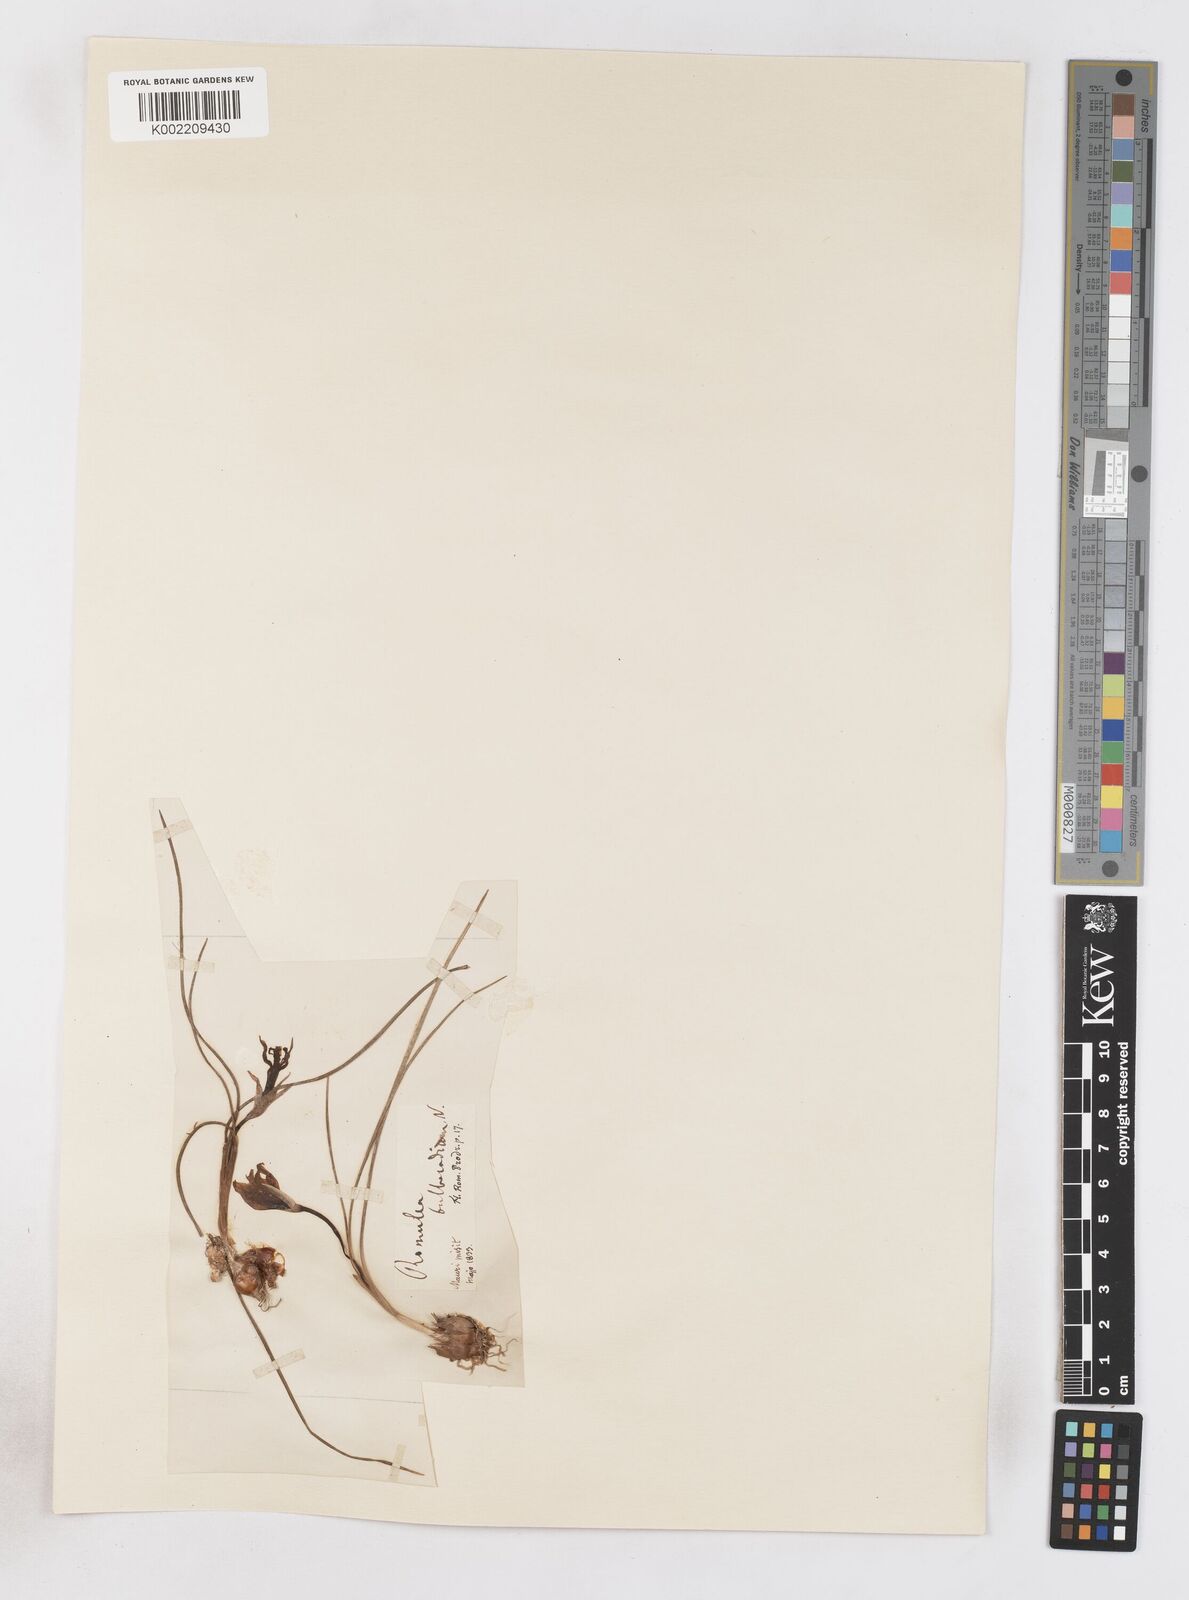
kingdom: Plantae
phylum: Tracheophyta
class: Liliopsida
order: Asparagales
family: Iridaceae
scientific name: Iridaceae
